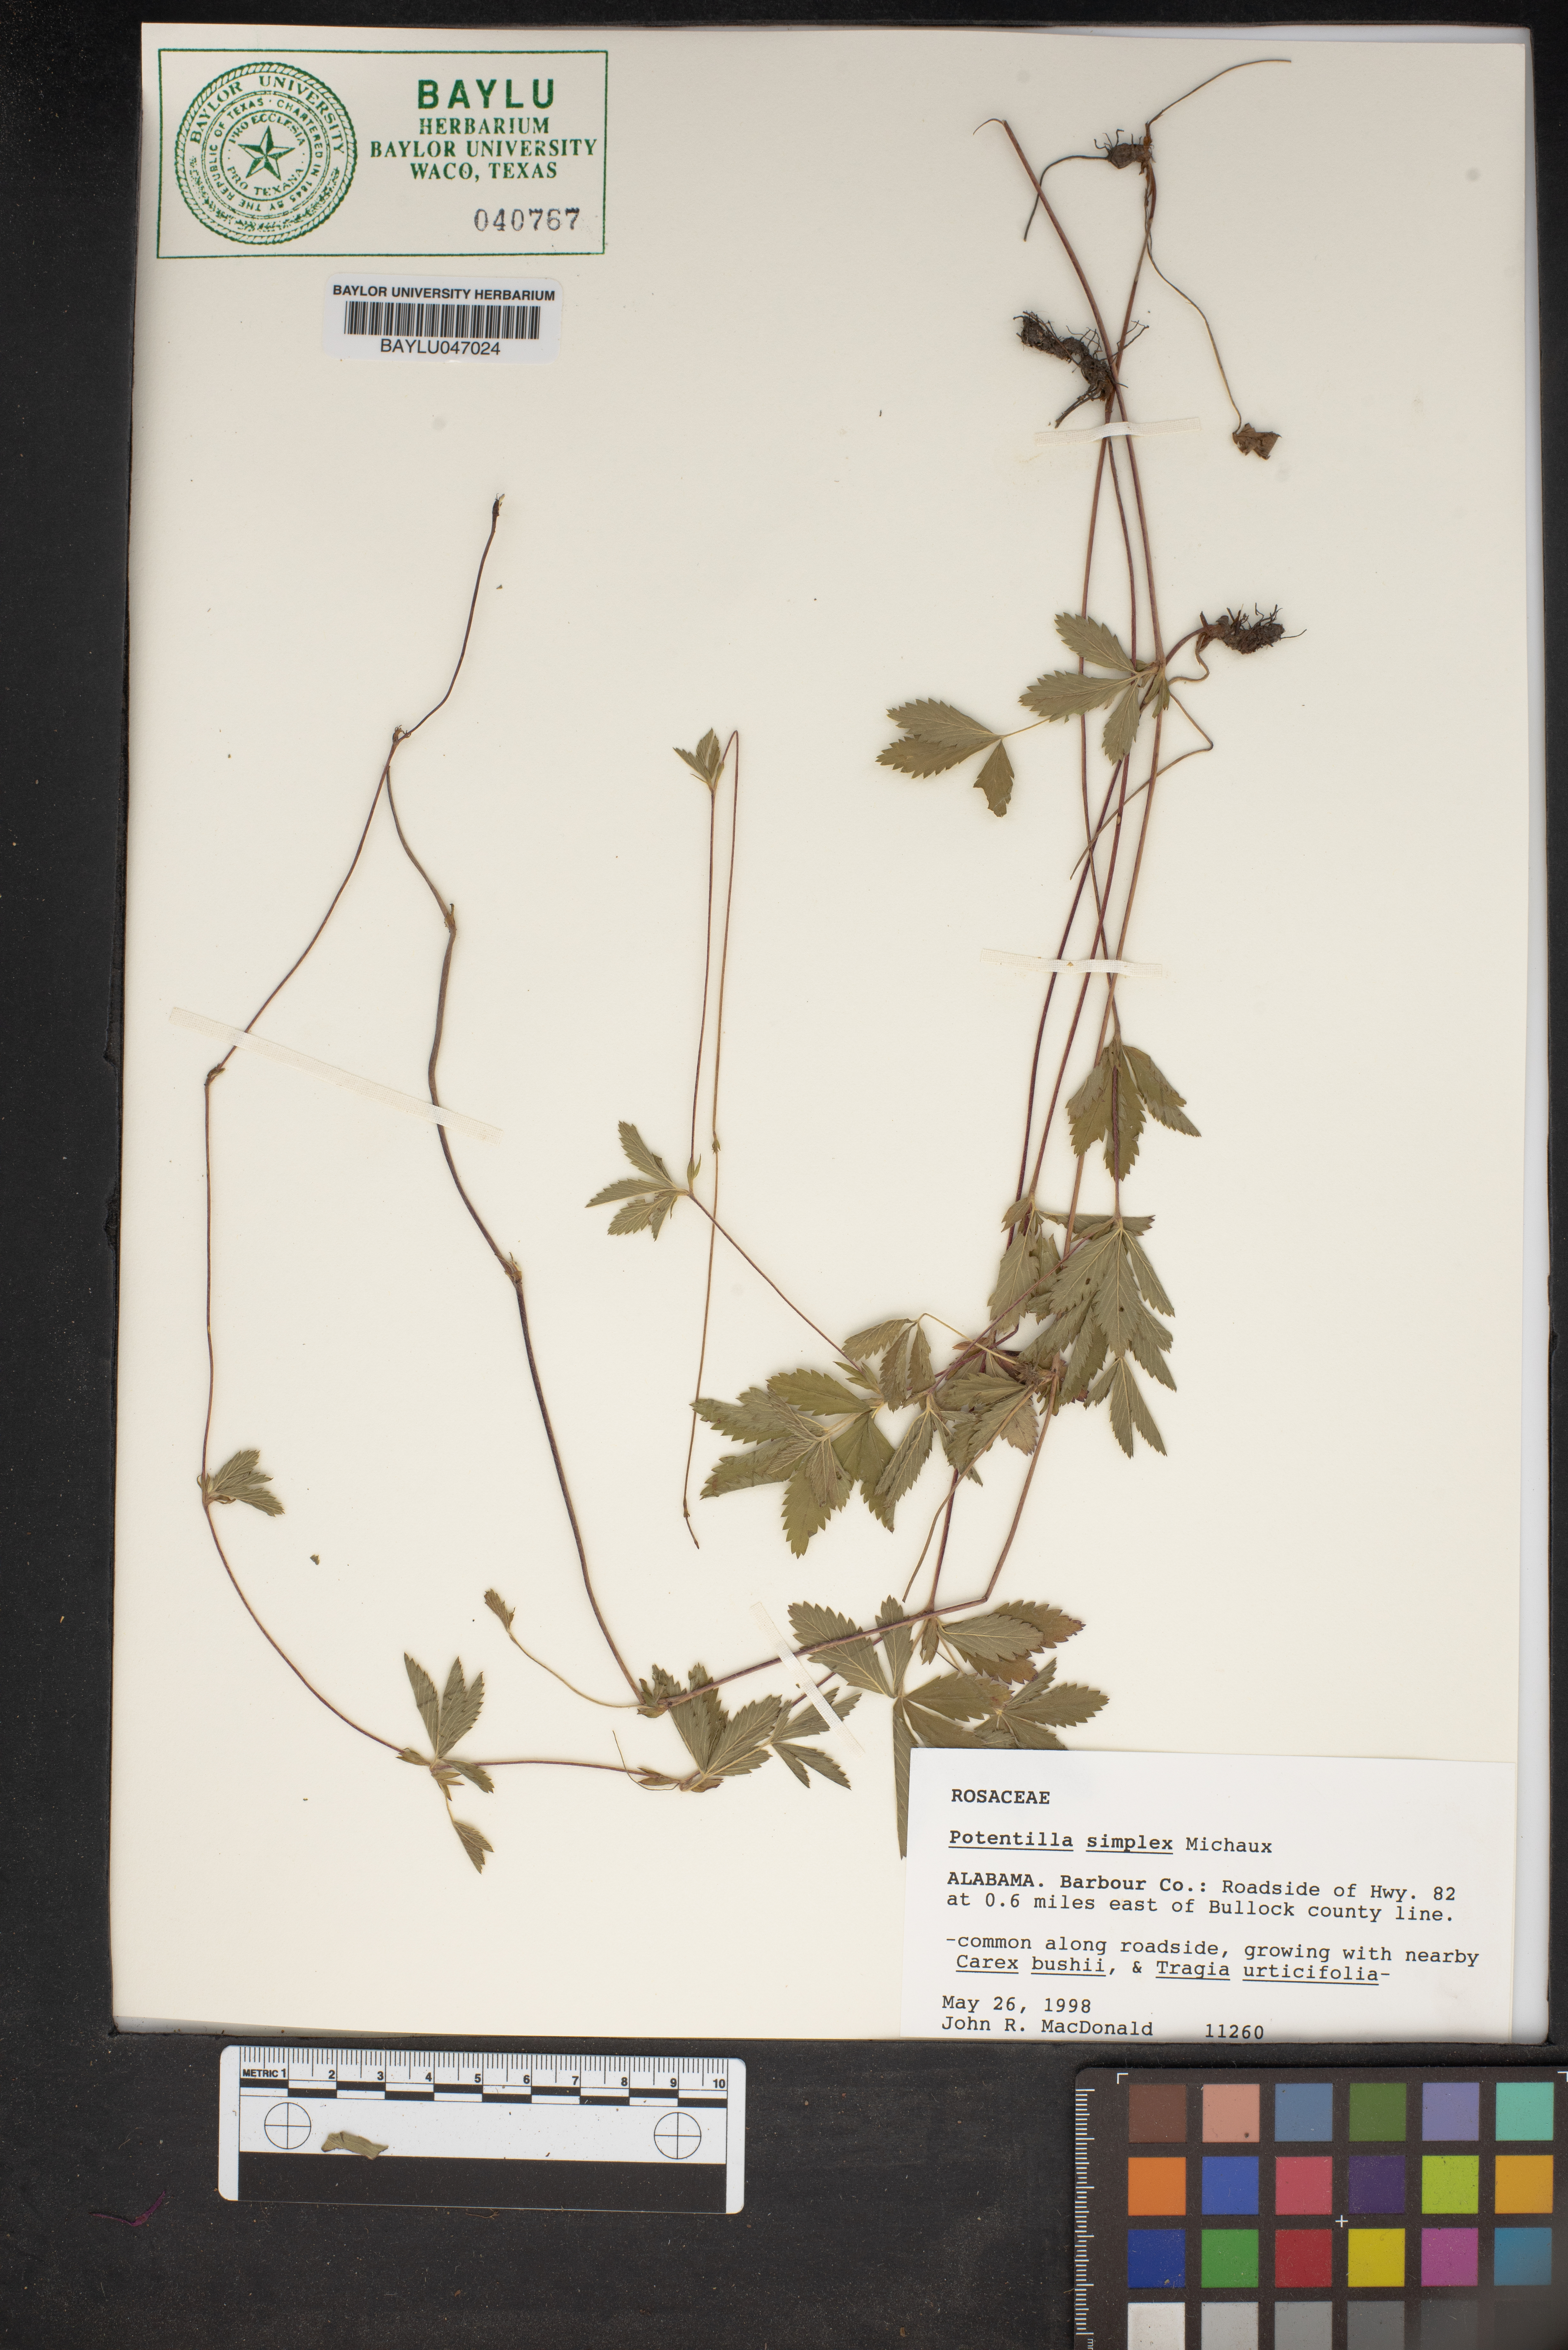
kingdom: Plantae
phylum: Tracheophyta
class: Magnoliopsida
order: Rosales
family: Rosaceae
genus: Potentilla
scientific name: Potentilla simplex
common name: Old field cinquefoil
